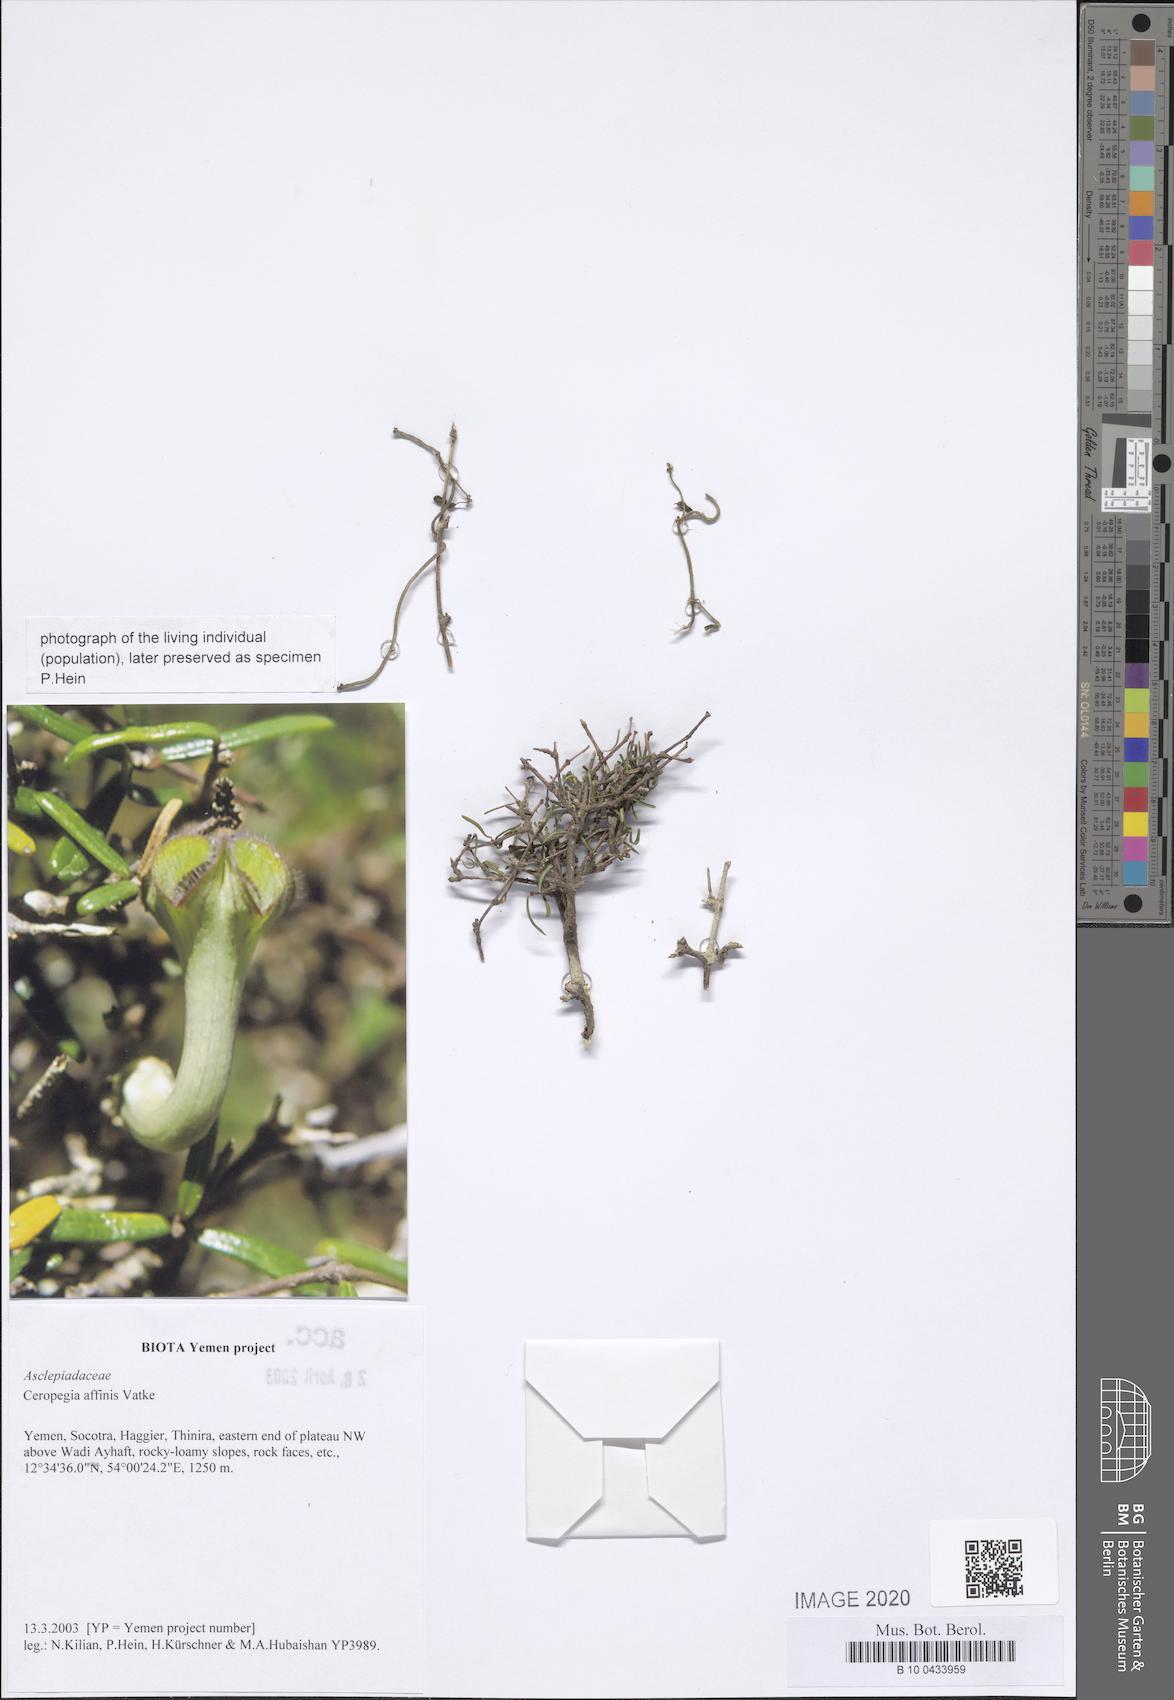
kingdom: Plantae
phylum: Tracheophyta
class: Magnoliopsida
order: Gentianales
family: Apocynaceae
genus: Ceropegia
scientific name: Ceropegia affinis
